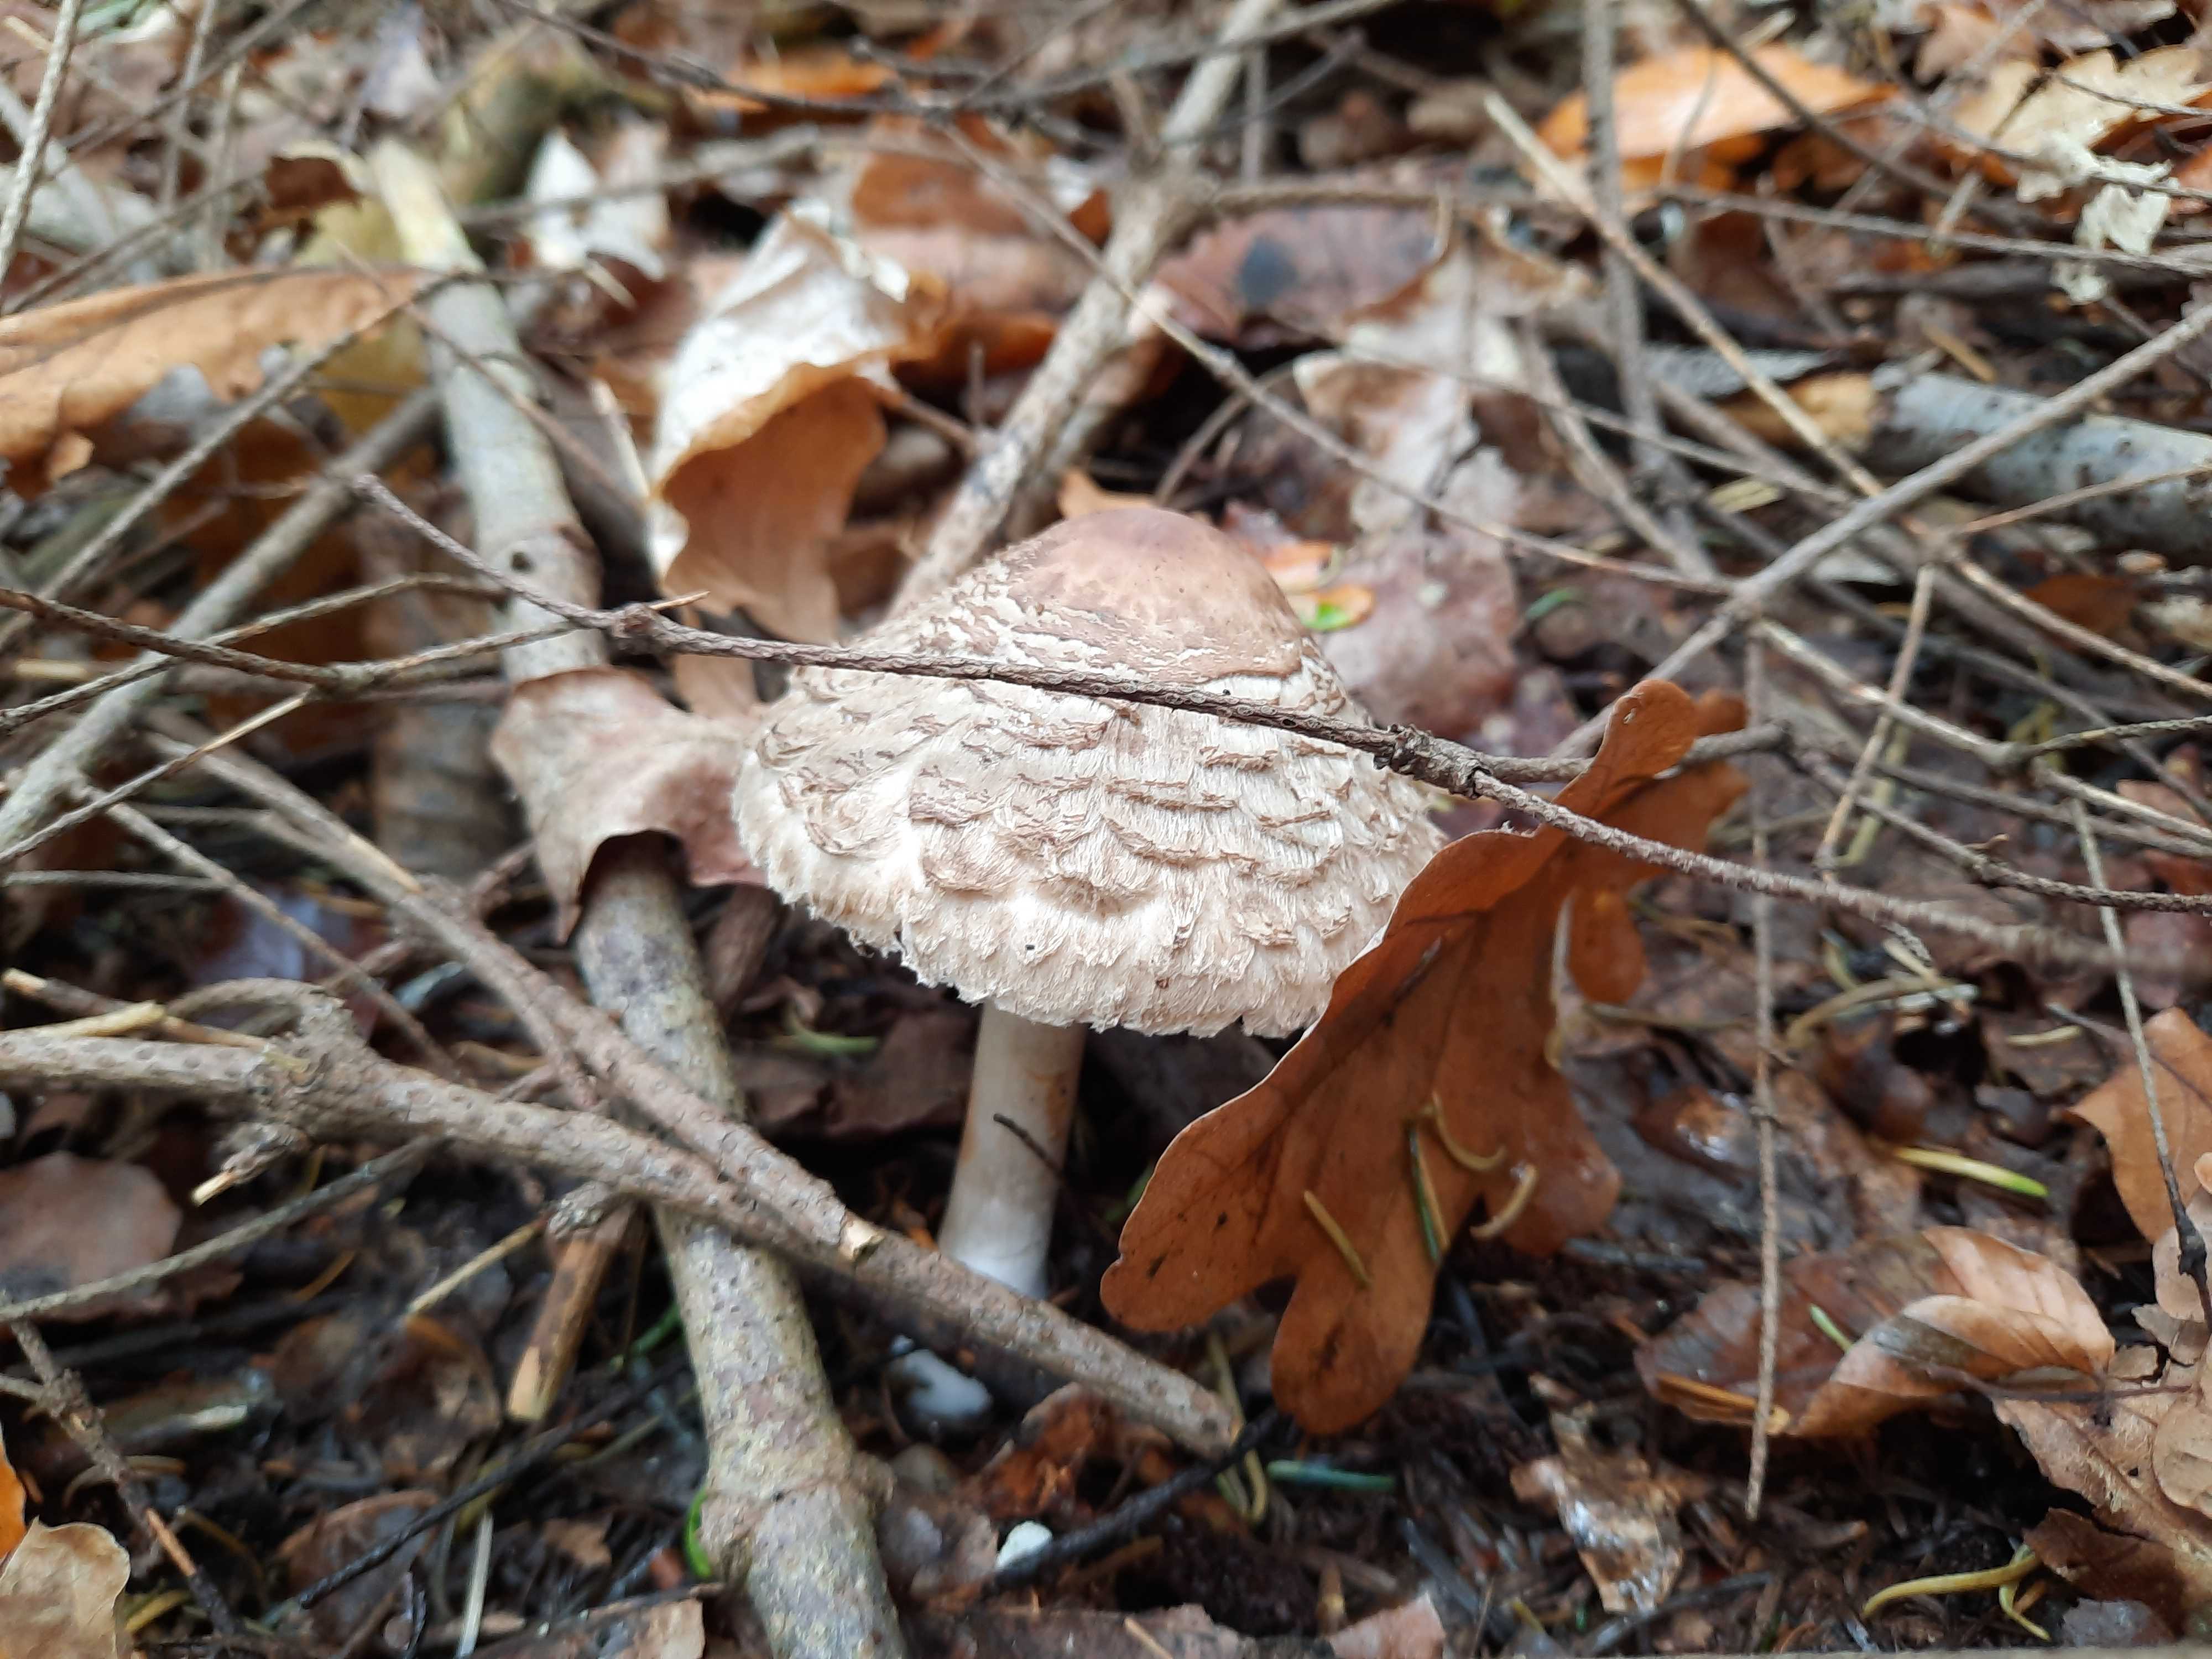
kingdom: Fungi
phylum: Basidiomycota
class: Agaricomycetes
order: Agaricales
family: Agaricaceae
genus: Chlorophyllum
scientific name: Chlorophyllum olivieri
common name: almindelig rabarberhat
